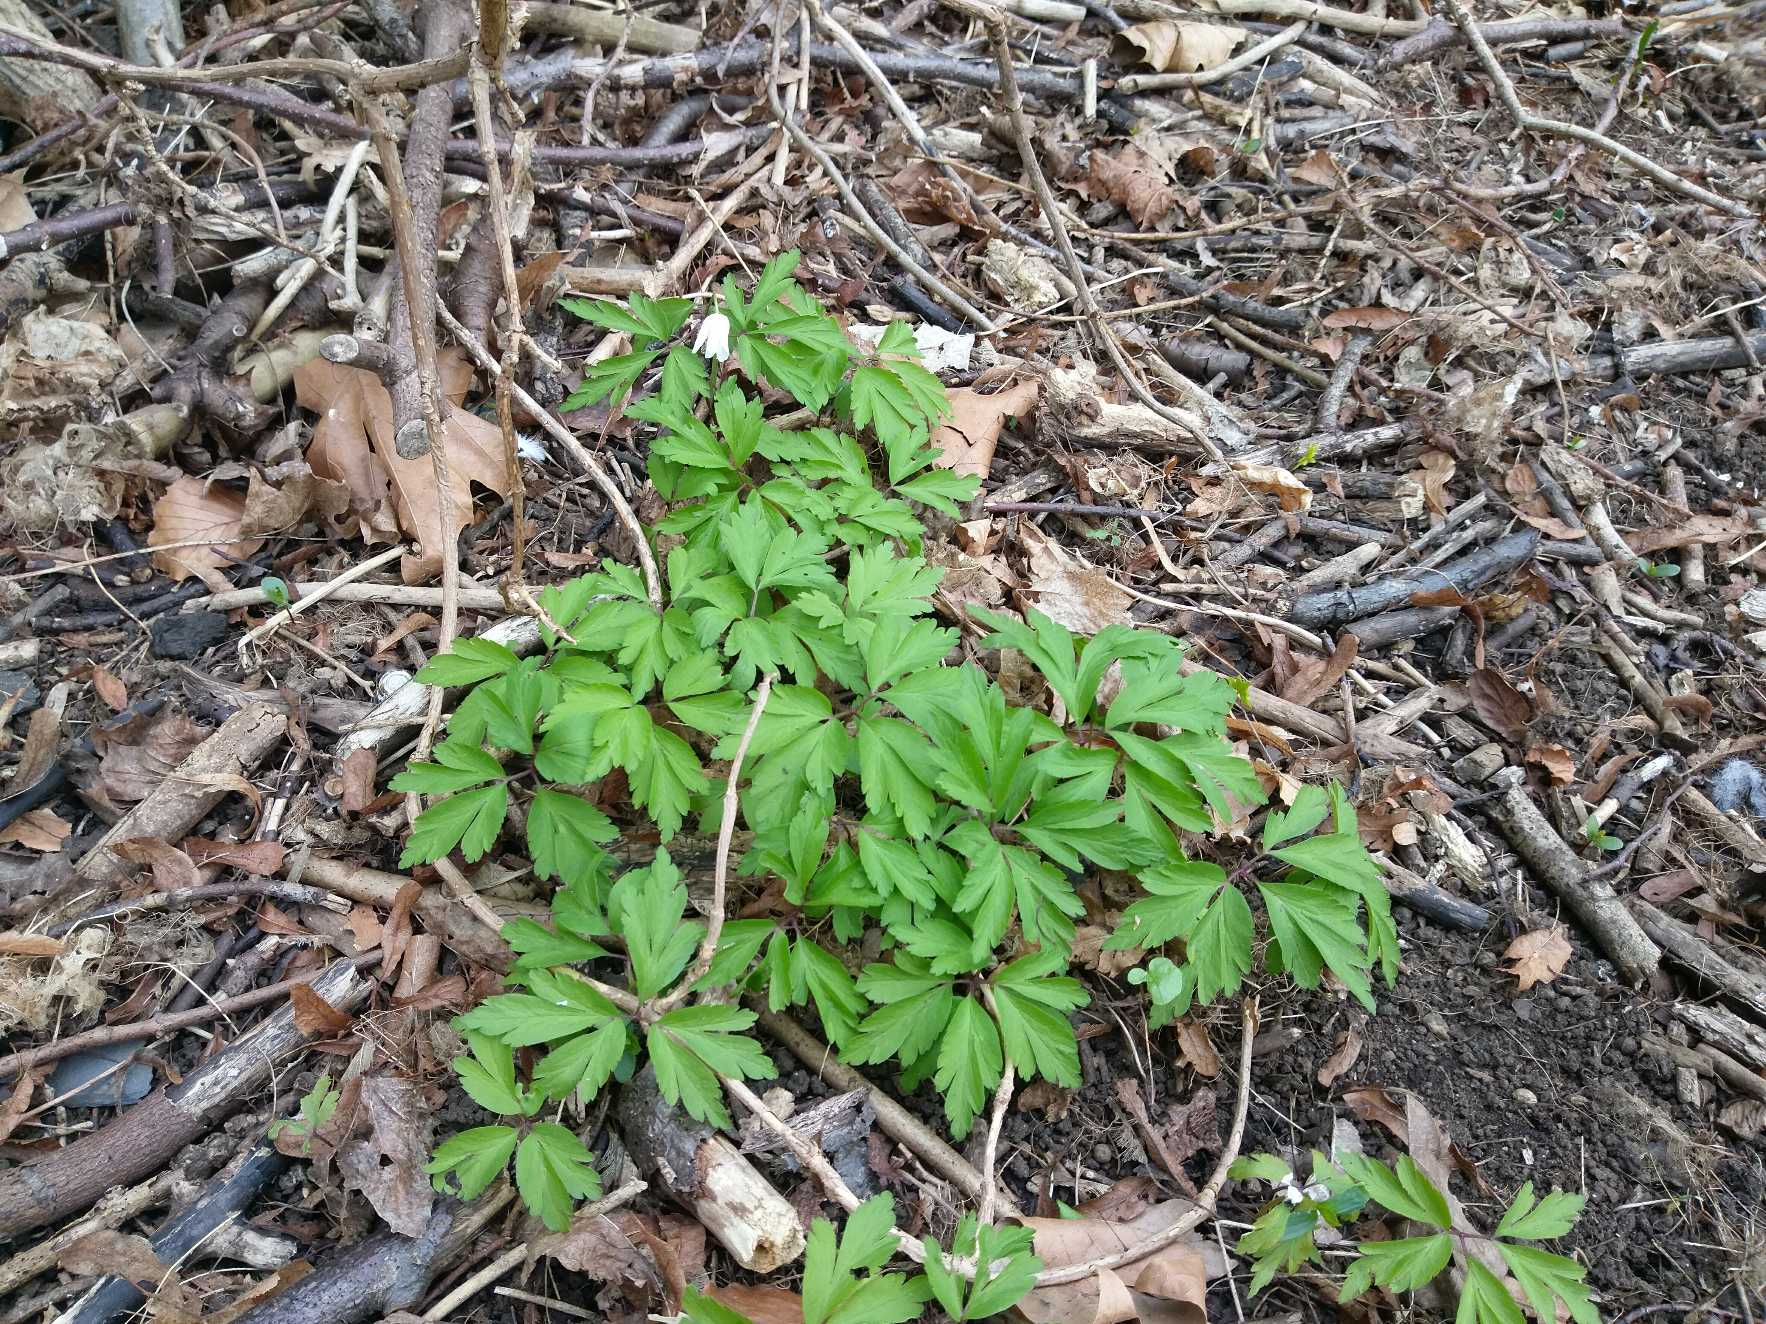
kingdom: Plantae
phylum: Tracheophyta
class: Magnoliopsida
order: Ranunculales
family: Ranunculaceae
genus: Anemone
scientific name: Anemone nemorosa
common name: Hvid anemone
